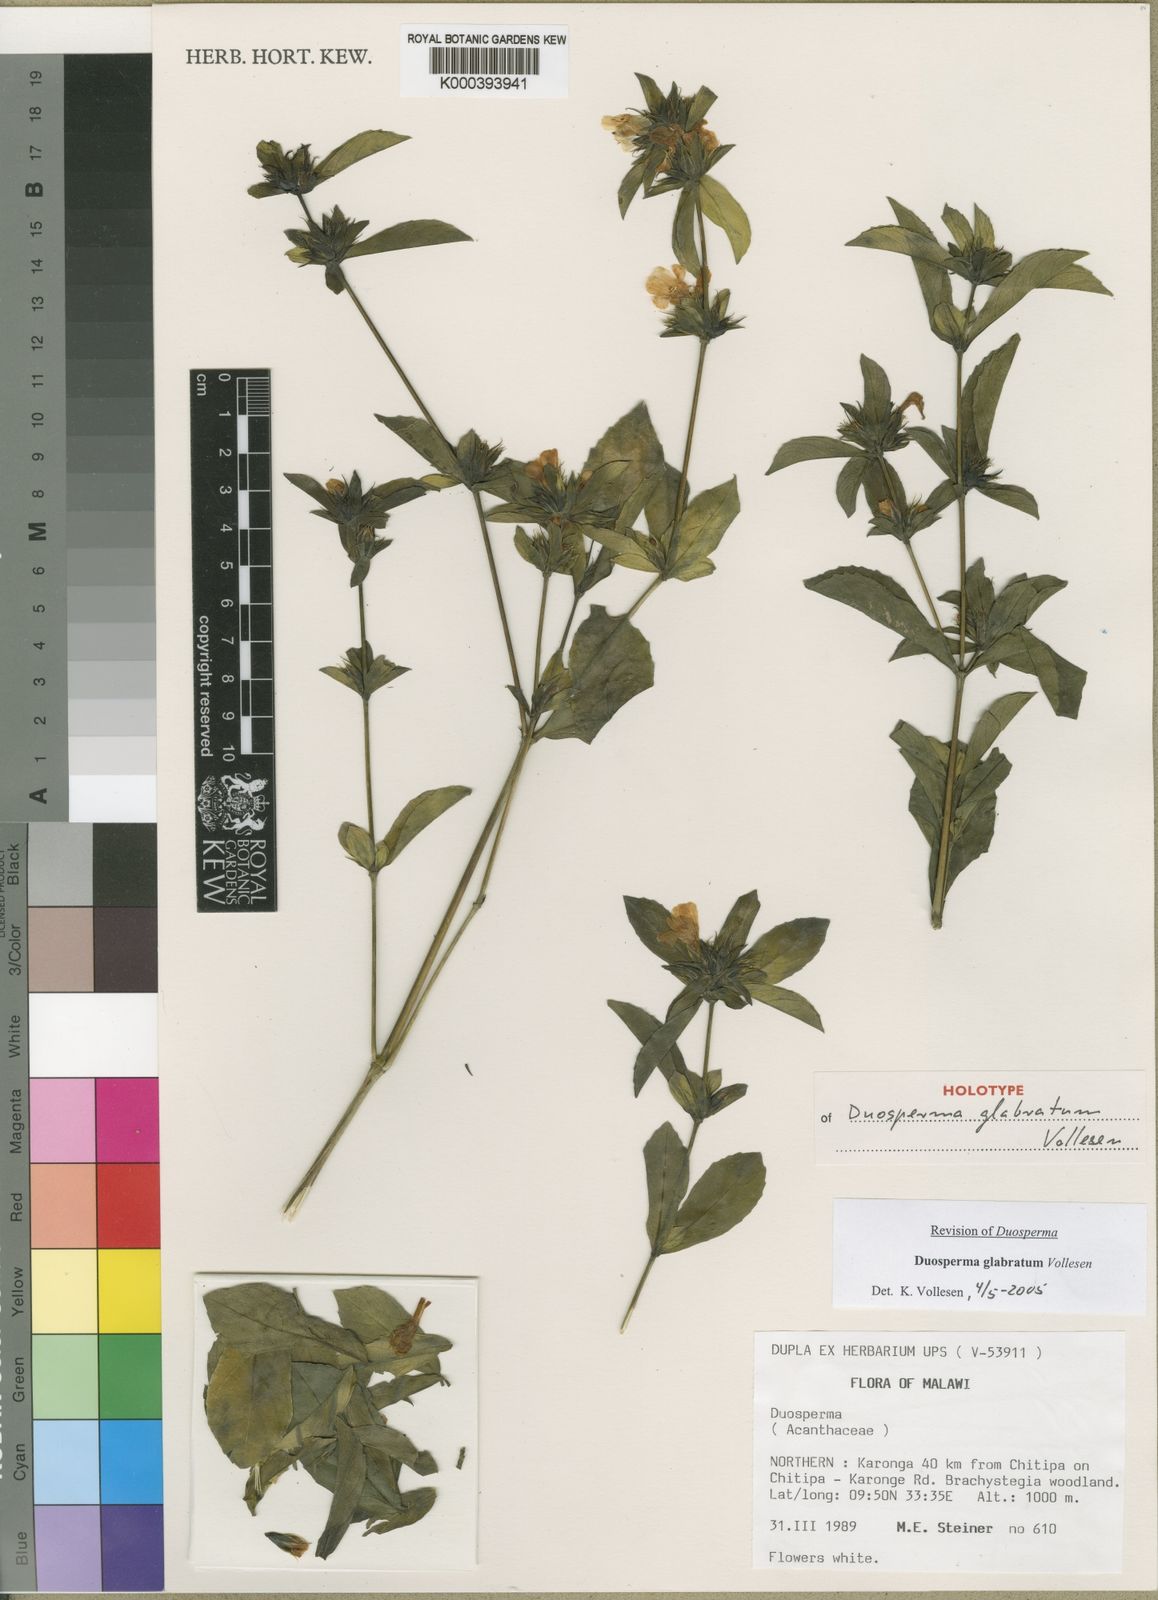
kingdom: Plantae
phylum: Tracheophyta
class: Magnoliopsida
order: Lamiales
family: Acanthaceae
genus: Duosperma
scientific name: Duosperma glabratum
